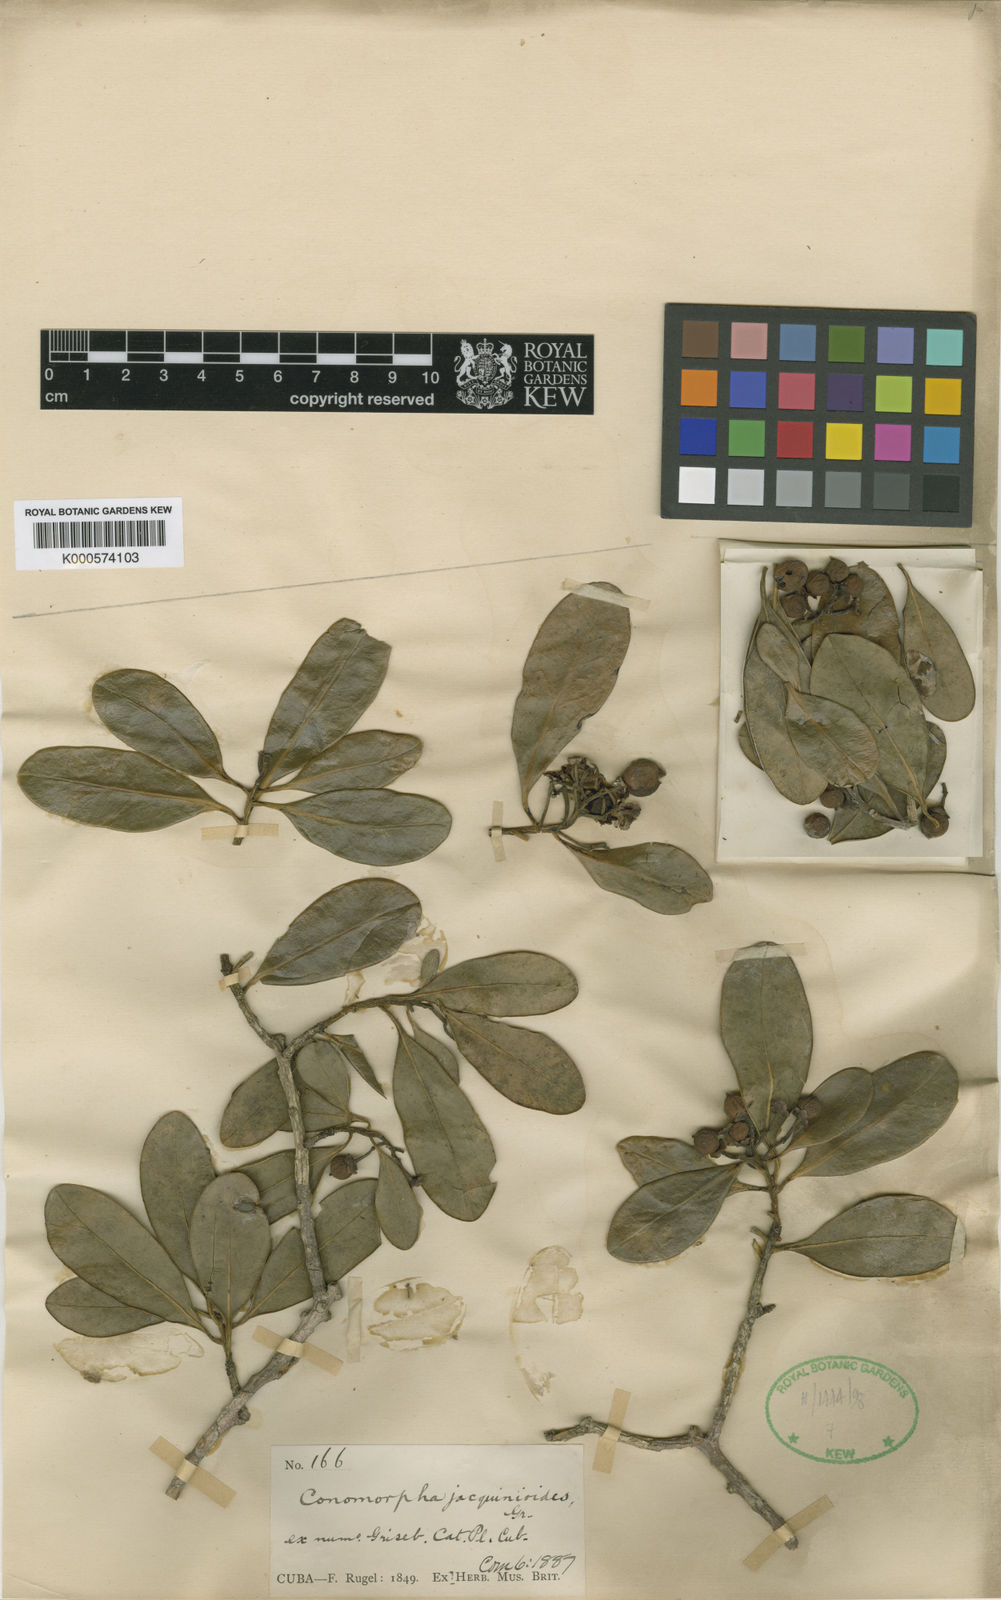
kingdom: Plantae
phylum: Tracheophyta
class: Magnoliopsida
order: Ericales
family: Primulaceae
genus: Wallenia
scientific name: Wallenia jacquinioides
